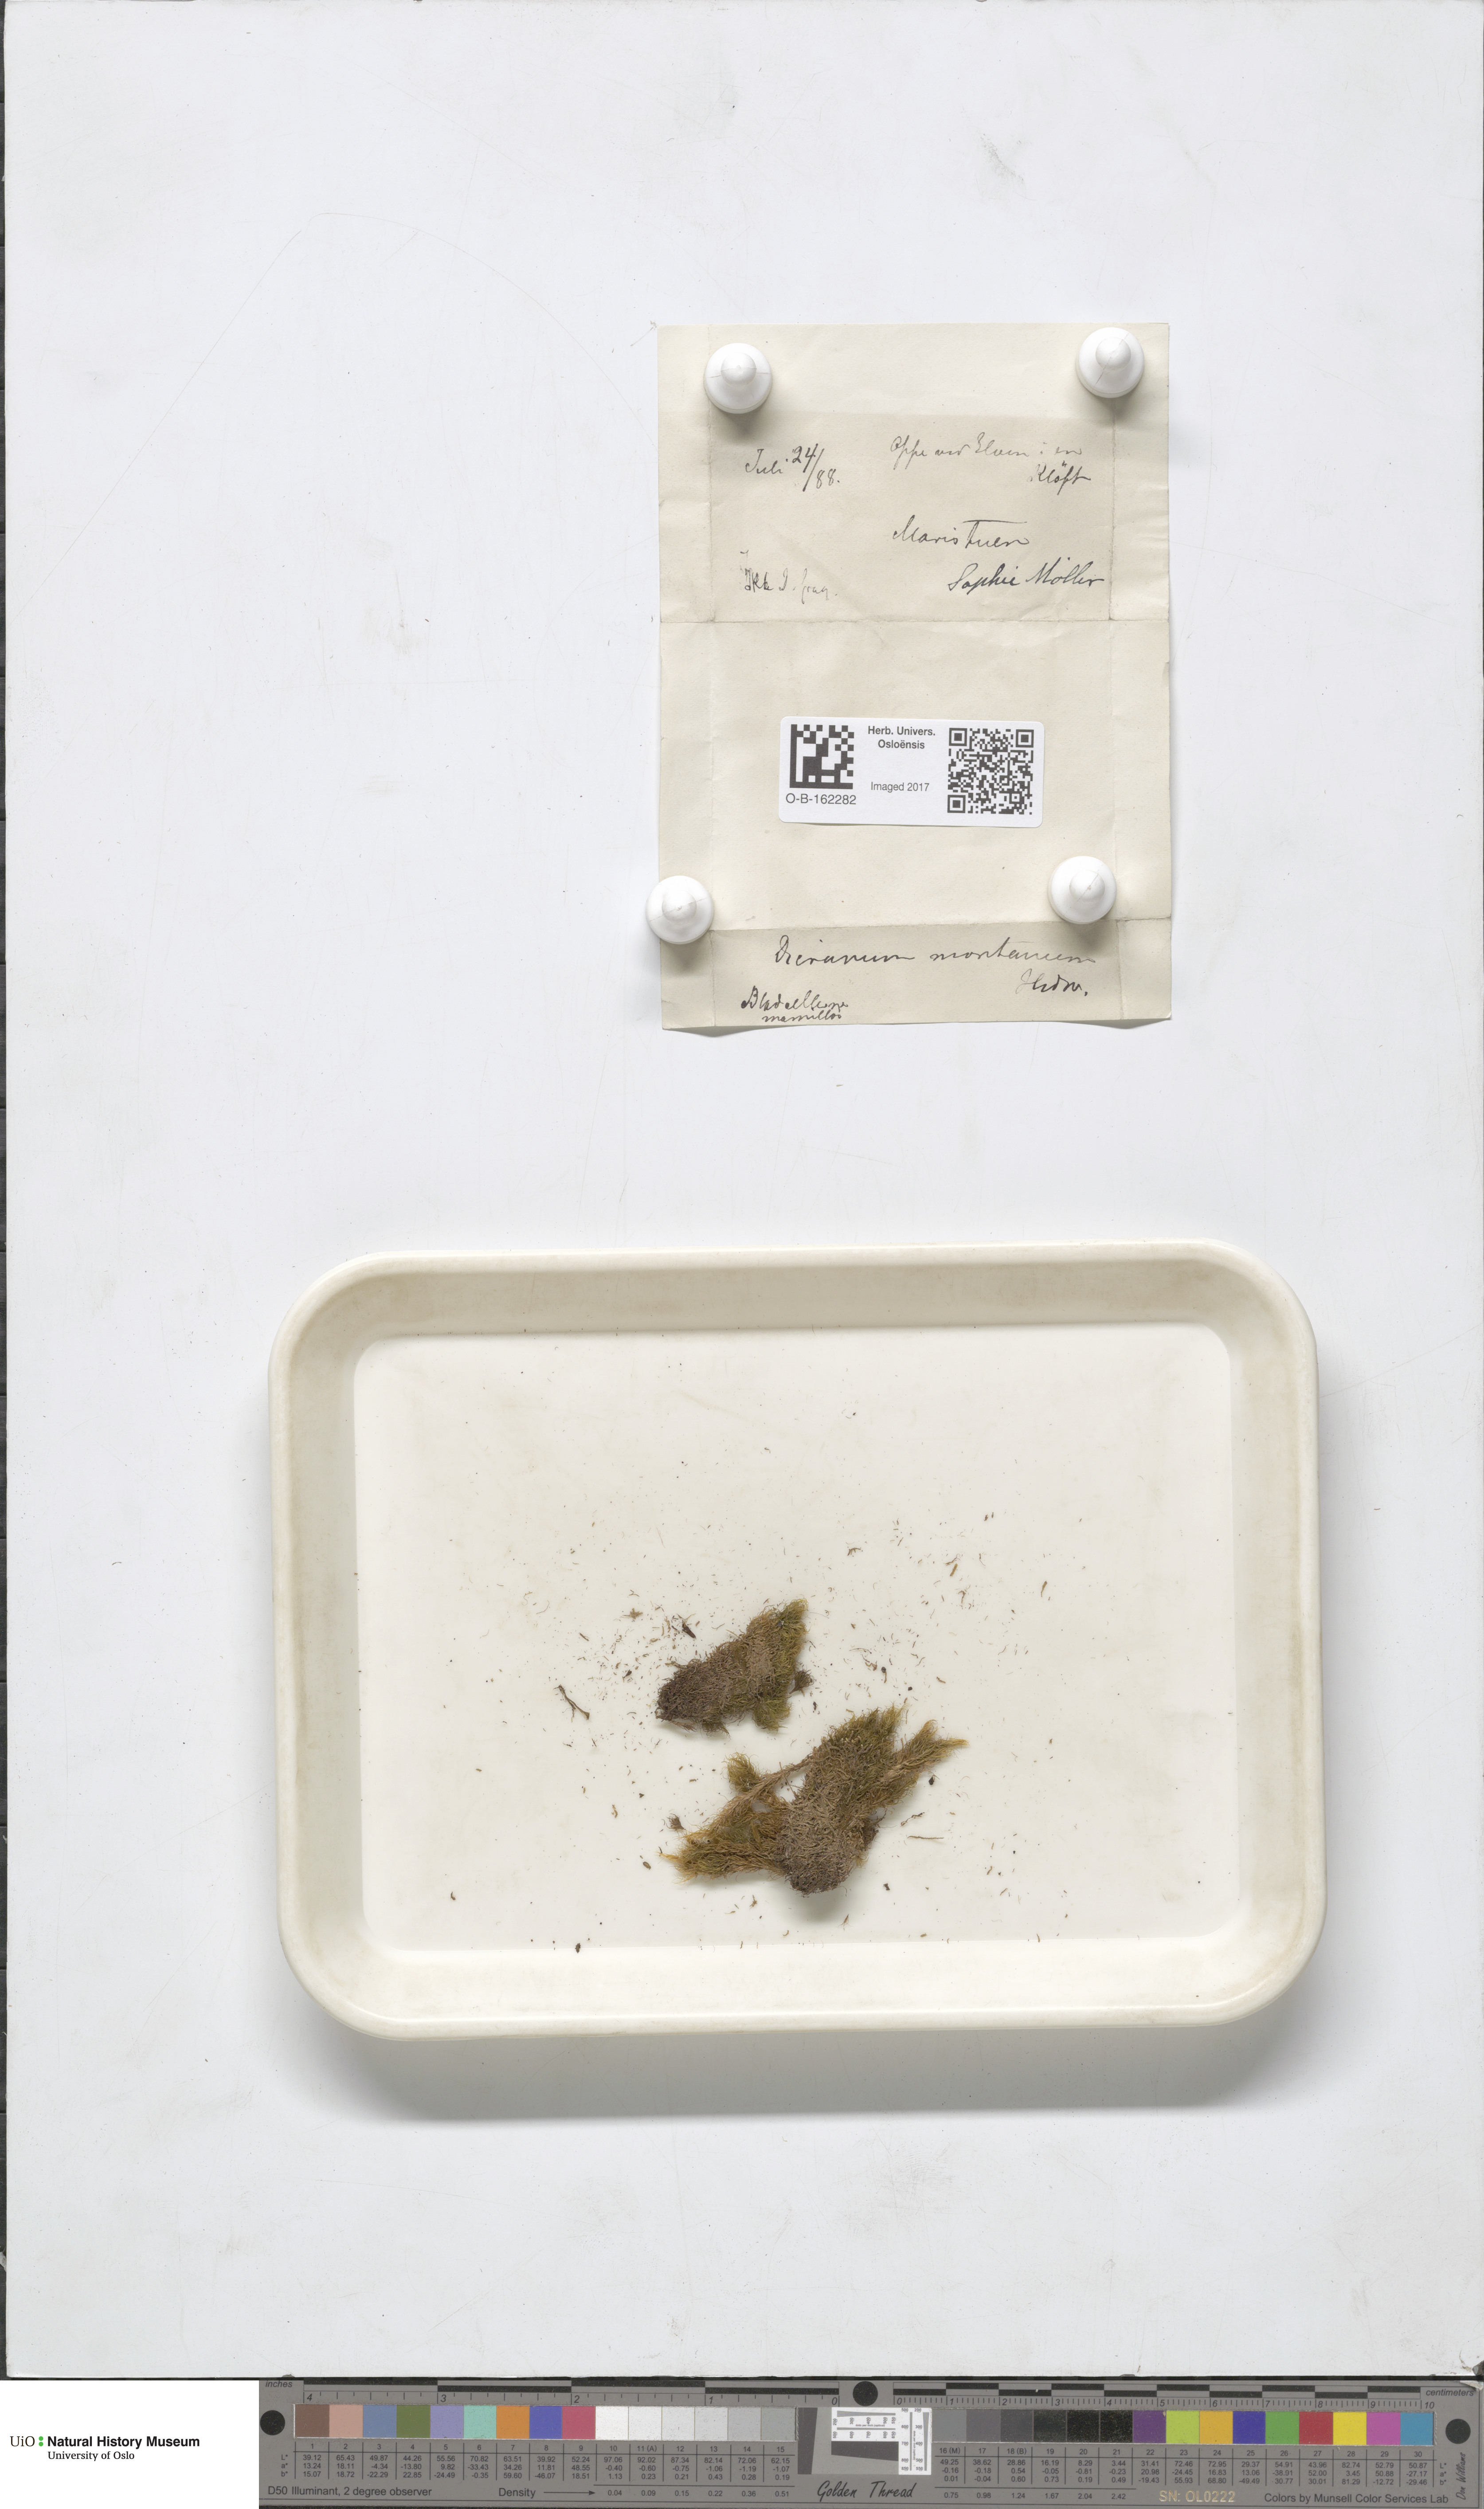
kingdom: Plantae
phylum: Bryophyta
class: Bryopsida
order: Dicranales
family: Dicranaceae
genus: Orthodicranum
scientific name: Orthodicranum montanum
